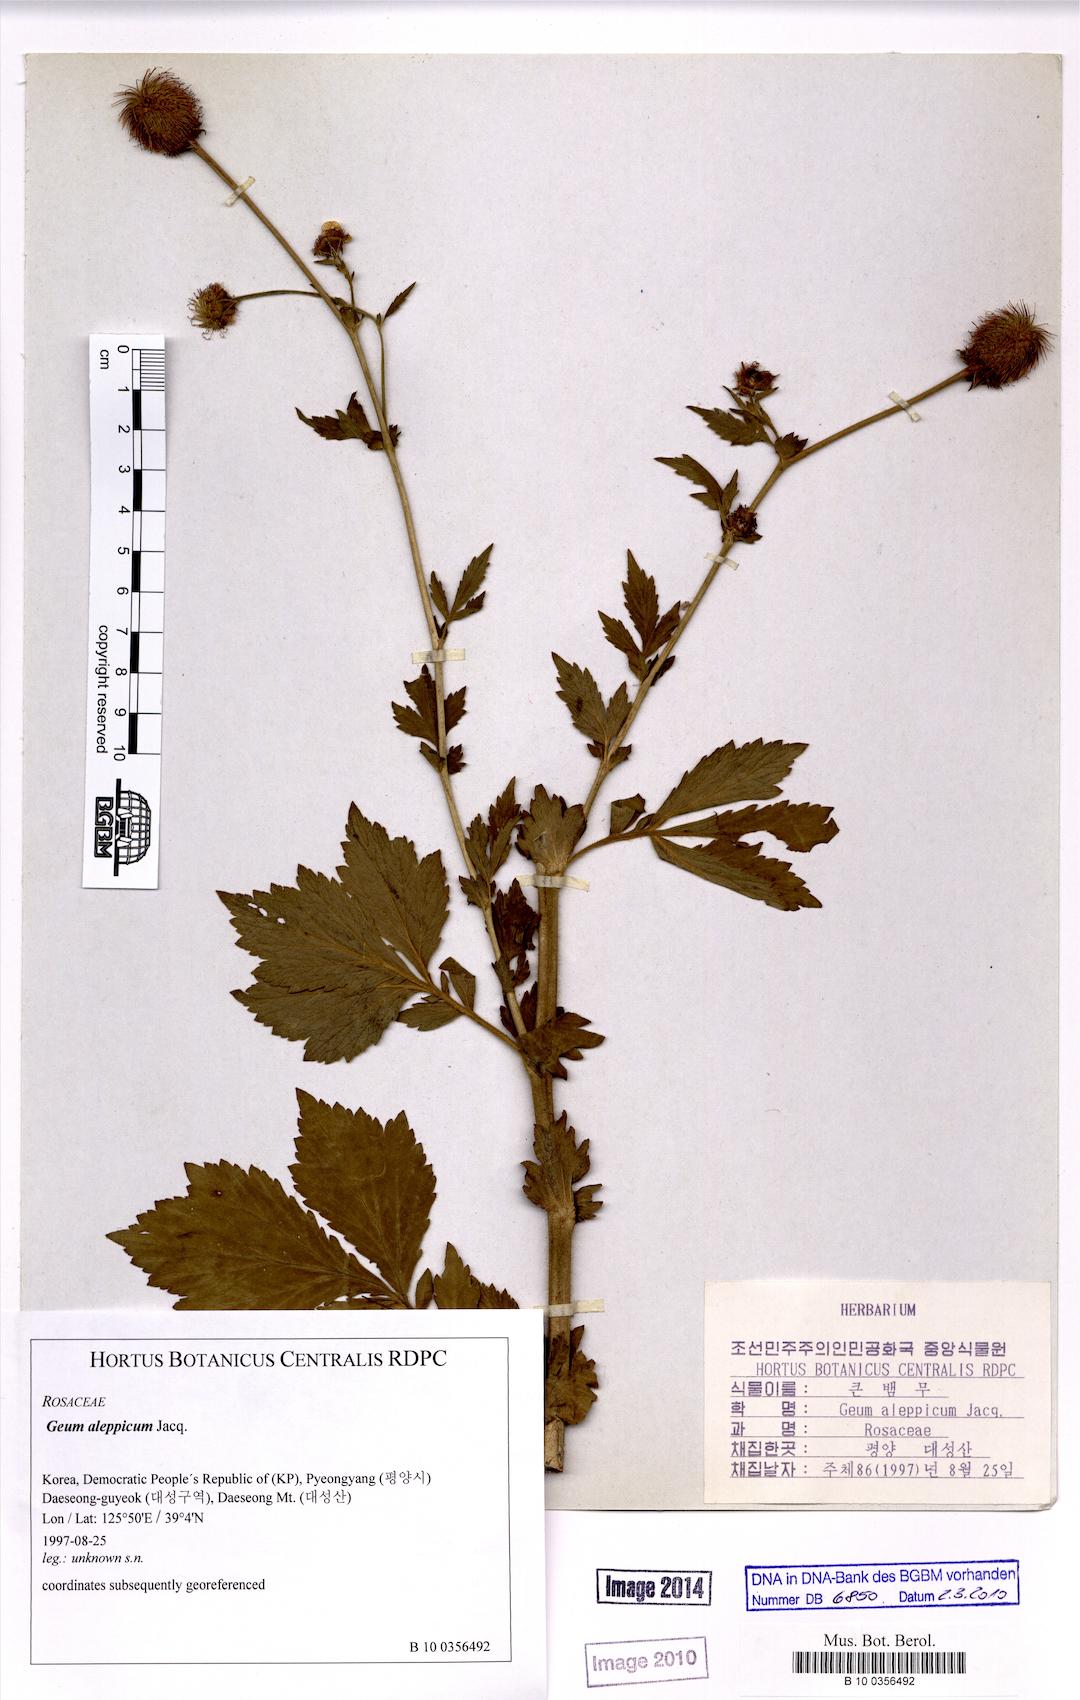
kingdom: Plantae
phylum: Tracheophyta
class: Magnoliopsida
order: Rosales
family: Rosaceae
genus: Geum
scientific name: Geum aleppicum
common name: Yellow avens
